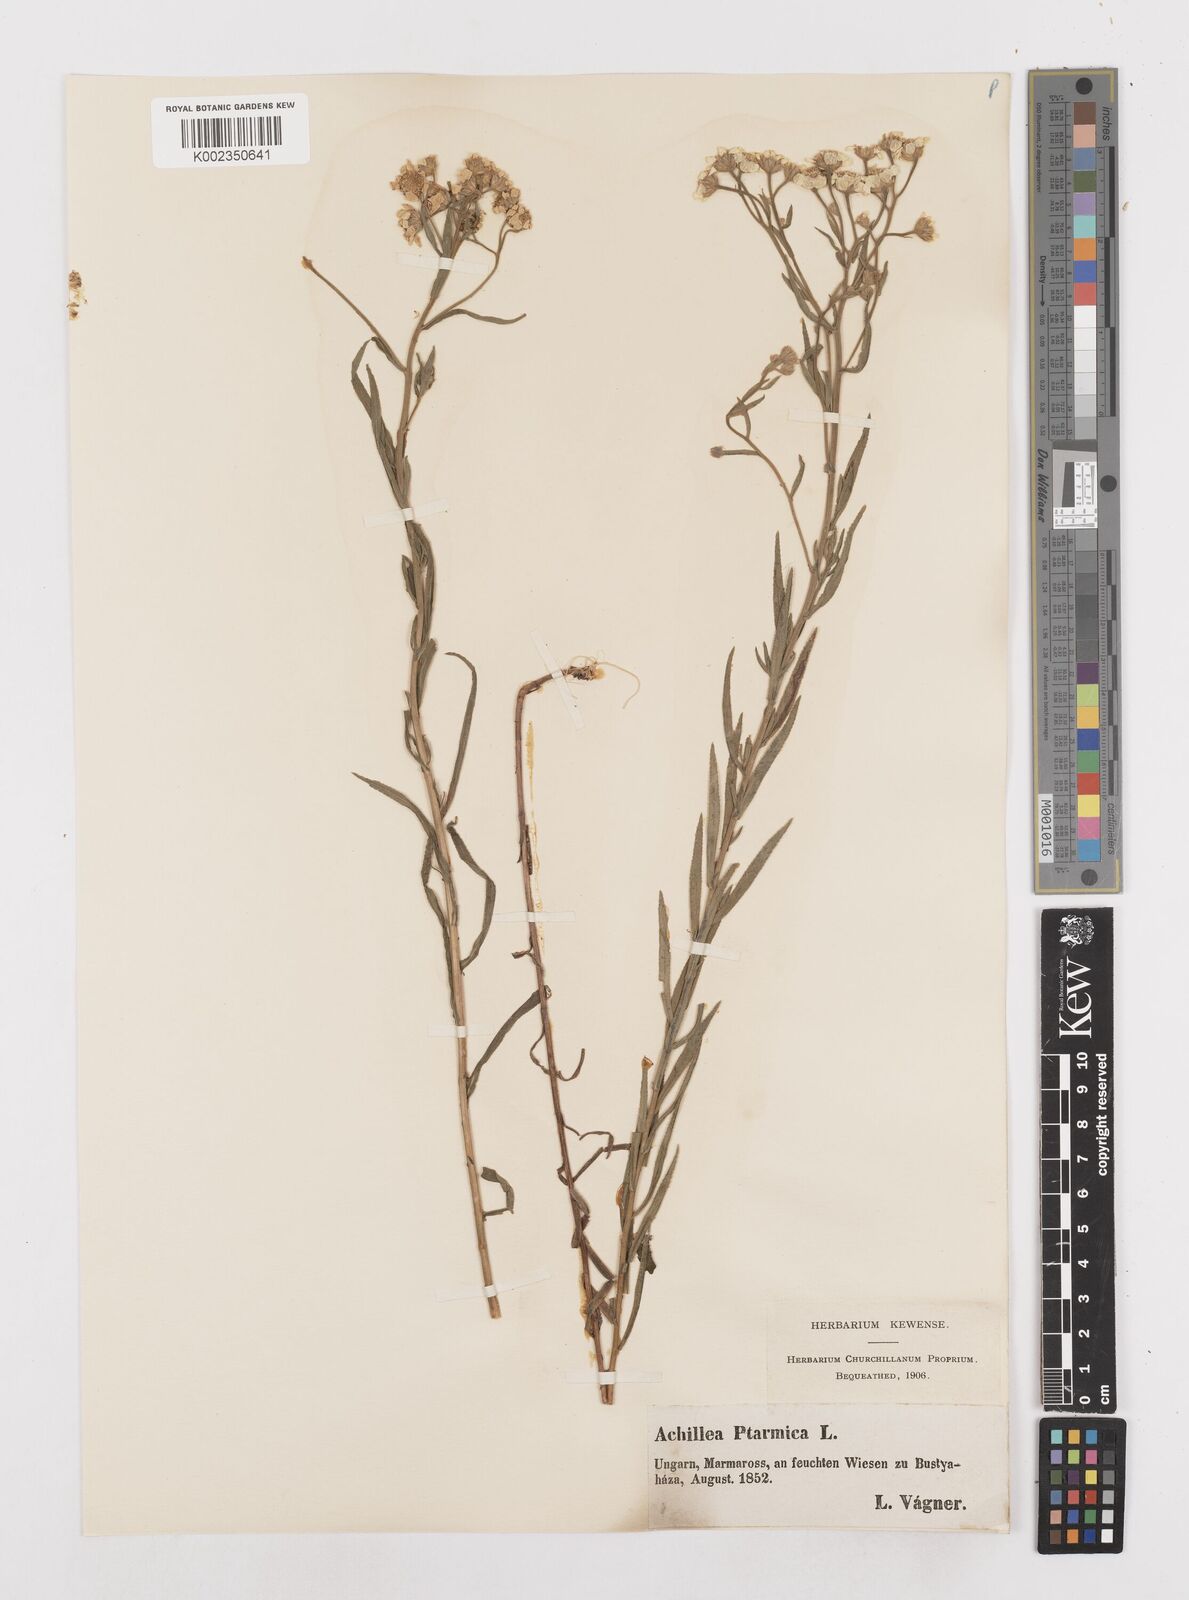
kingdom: Plantae
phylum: Tracheophyta
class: Magnoliopsida
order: Asterales
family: Asteraceae
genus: Achillea
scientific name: Achillea ptarmica
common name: Sneezeweed
